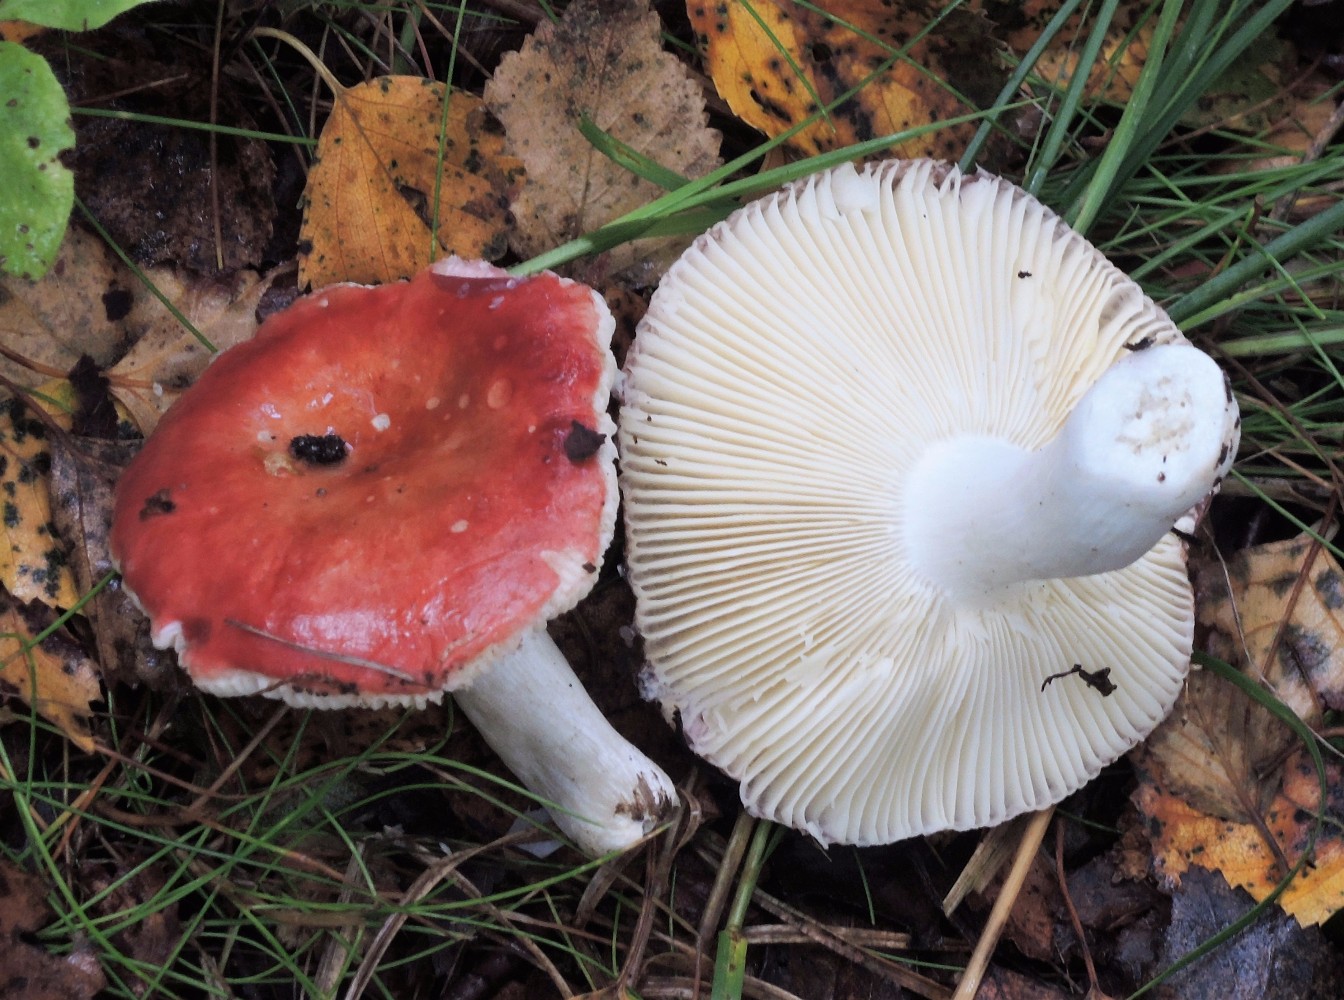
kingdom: Fungi
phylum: Basidiomycota
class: Agaricomycetes
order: Russulales
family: Russulaceae
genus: Russula
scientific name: Russula velenovskyi
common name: orangerød skørhat
